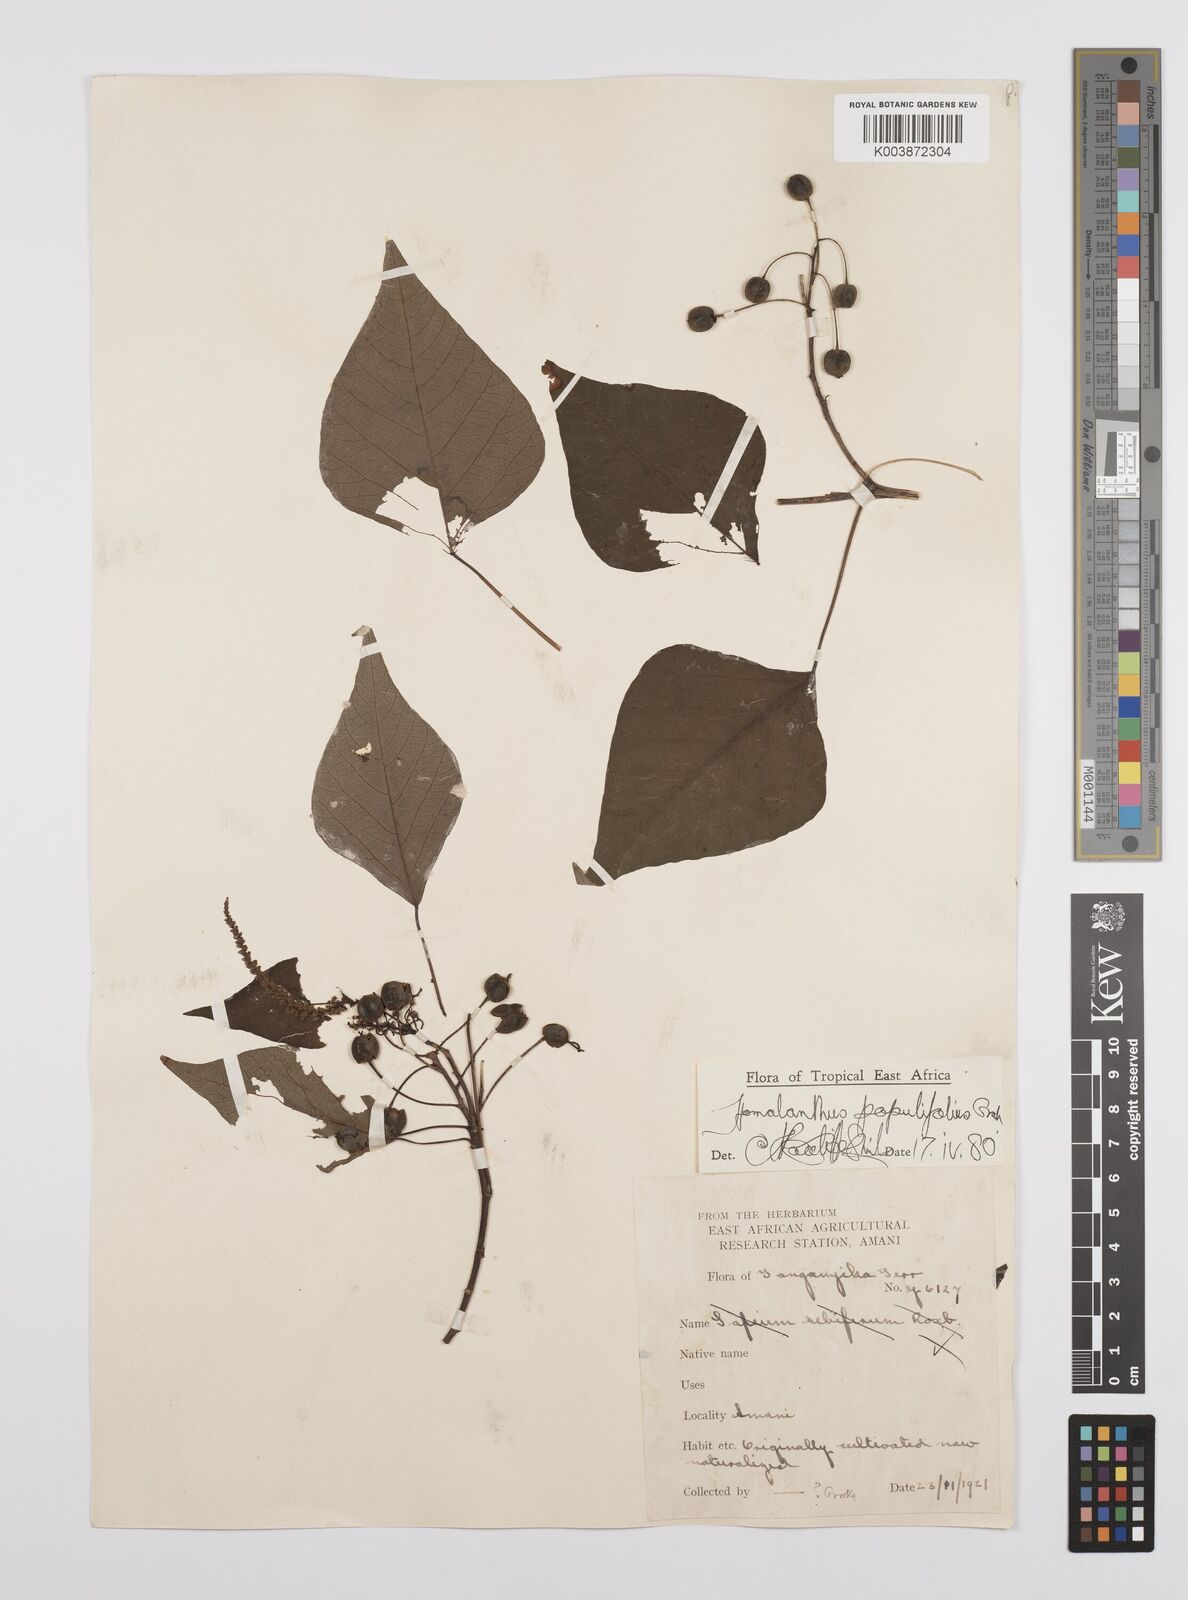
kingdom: Plantae
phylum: Tracheophyta
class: Magnoliopsida
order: Malpighiales
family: Euphorbiaceae
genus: Homalanthus
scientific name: Homalanthus populifolius
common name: Queensland poplar
